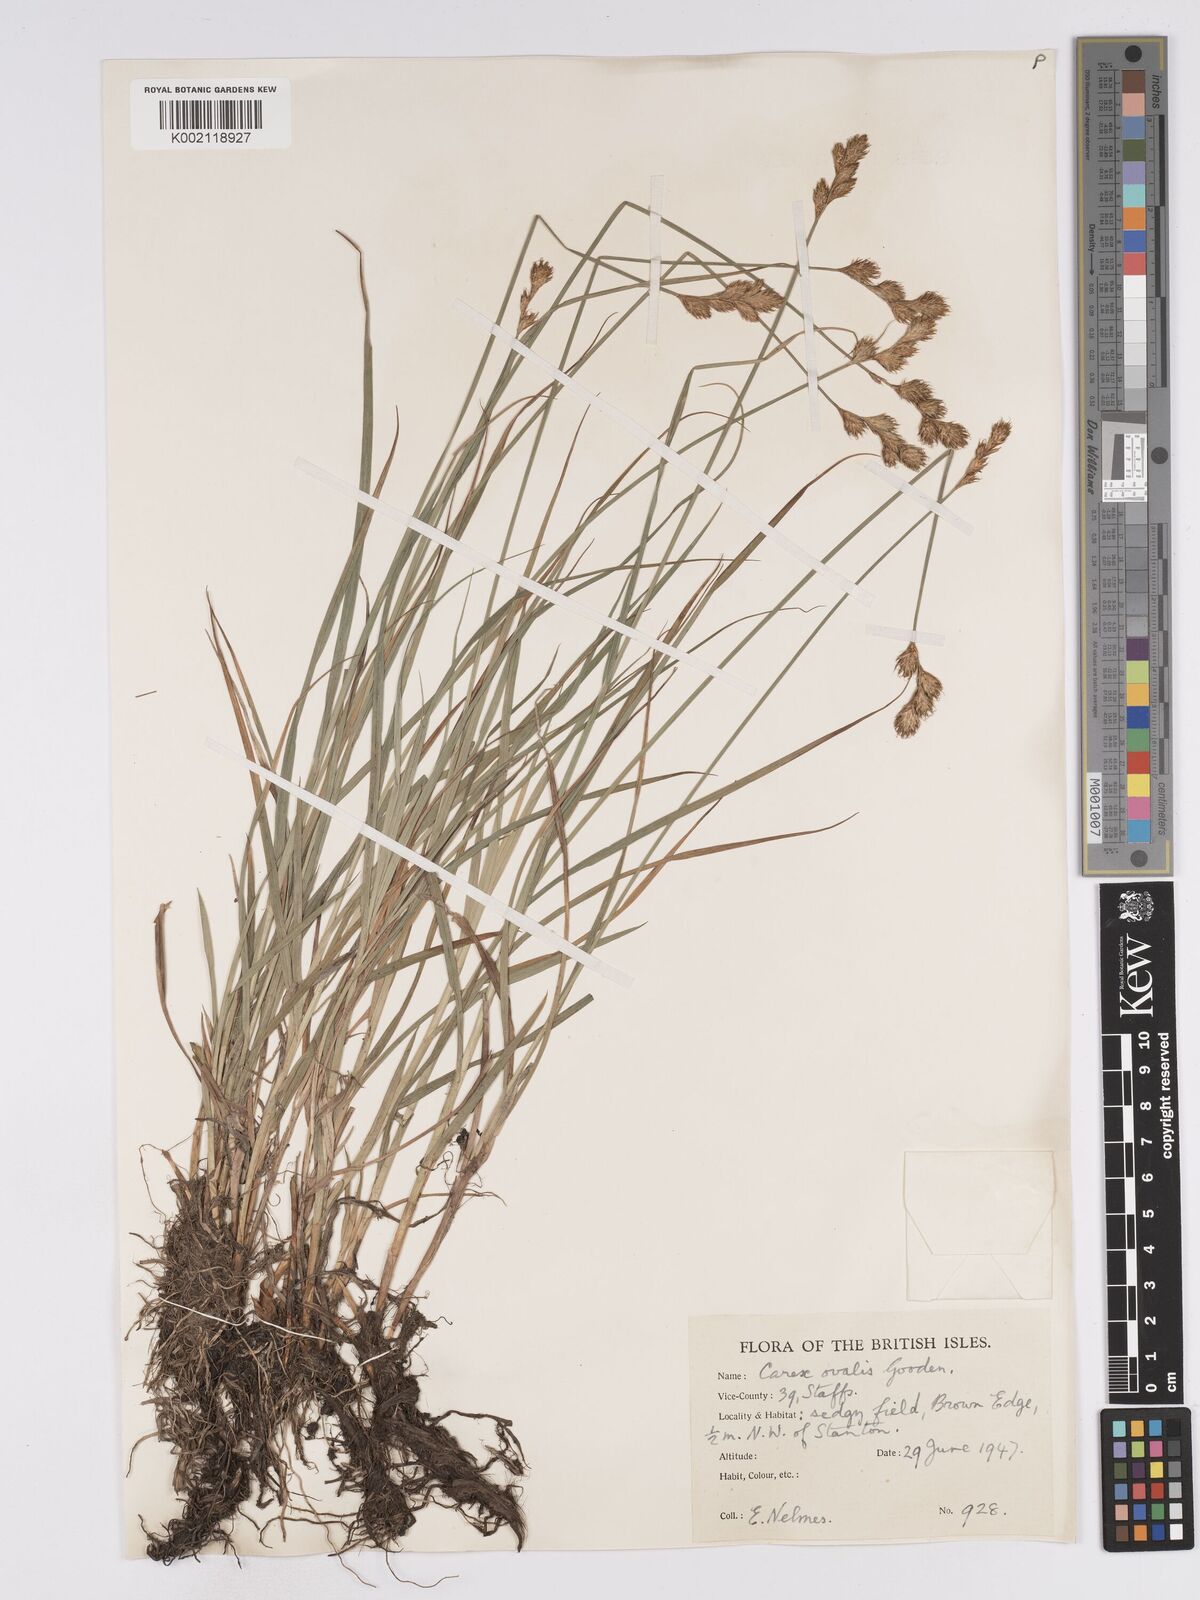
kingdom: Plantae
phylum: Tracheophyta
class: Liliopsida
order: Poales
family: Cyperaceae
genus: Carex
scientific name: Carex leporina
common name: Oval sedge
